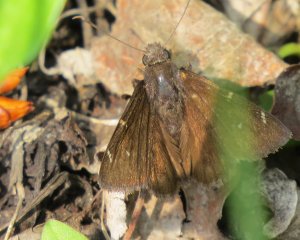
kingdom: Animalia
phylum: Arthropoda
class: Insecta
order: Lepidoptera
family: Hesperiidae
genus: Autochton
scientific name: Autochton
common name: Northern Cloudywing
